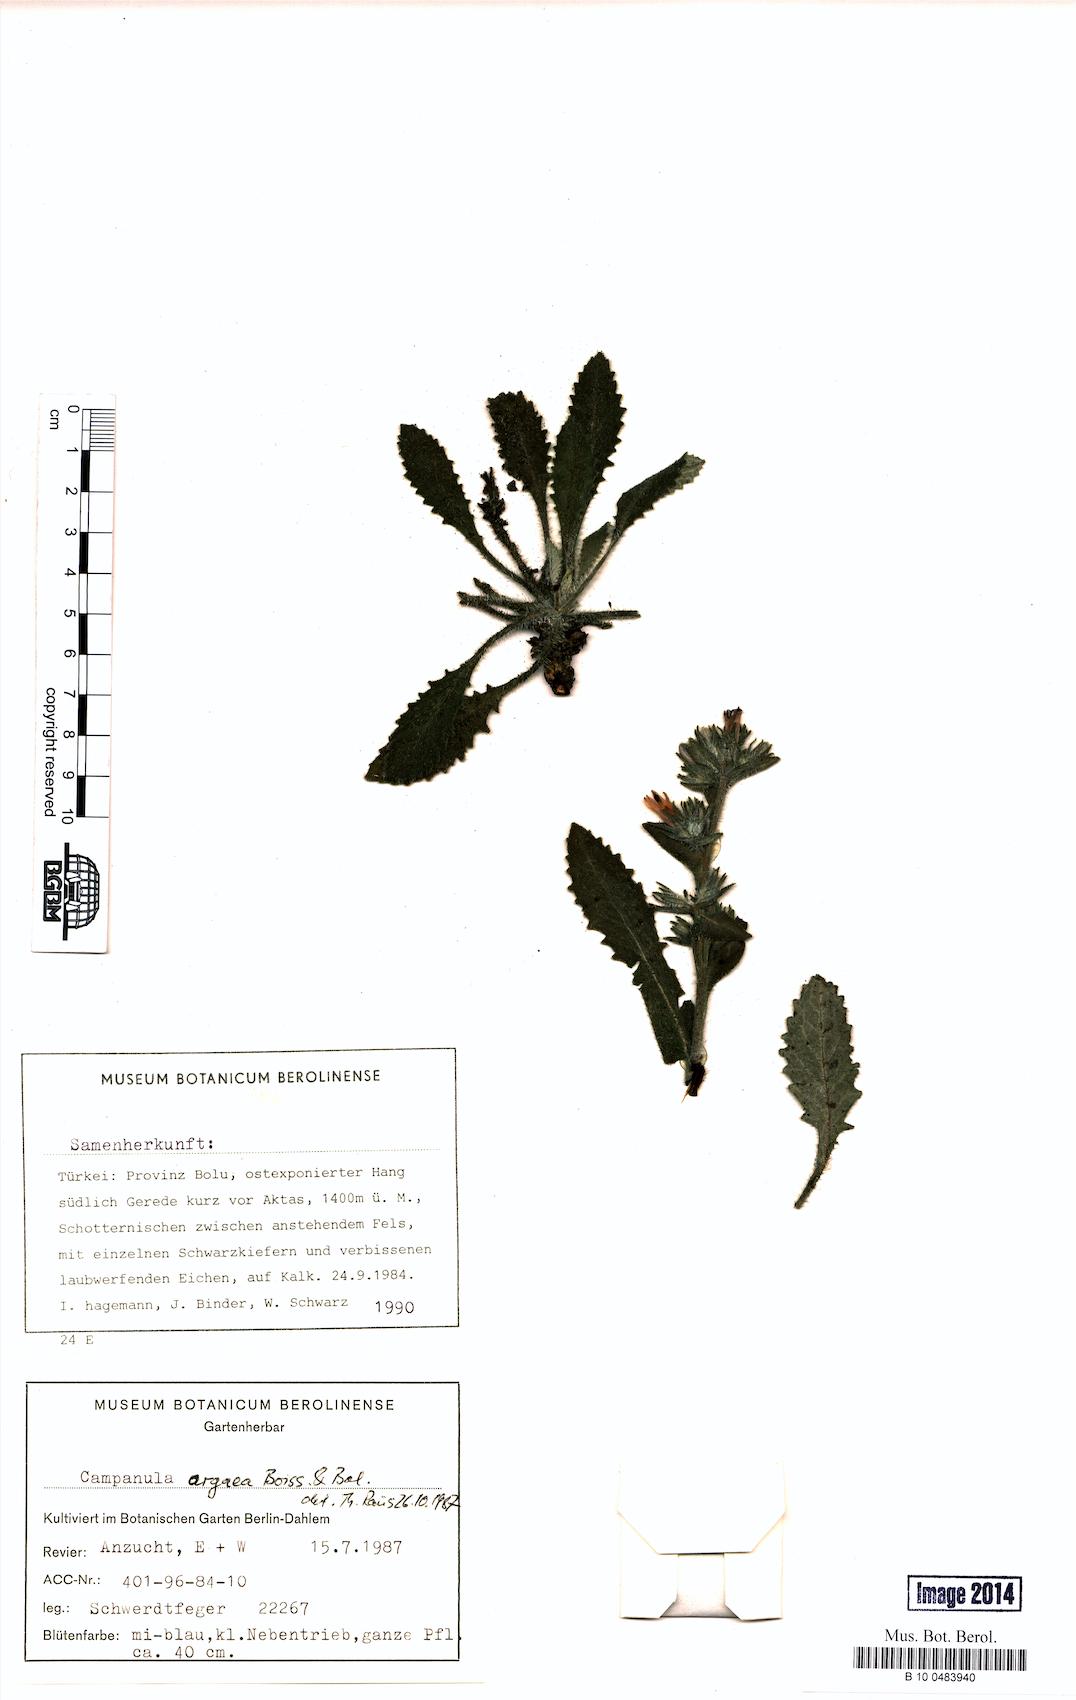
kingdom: Plantae
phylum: Tracheophyta
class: Magnoliopsida
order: Asterales
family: Campanulaceae
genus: Campanula
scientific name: Campanula ajugifolia
